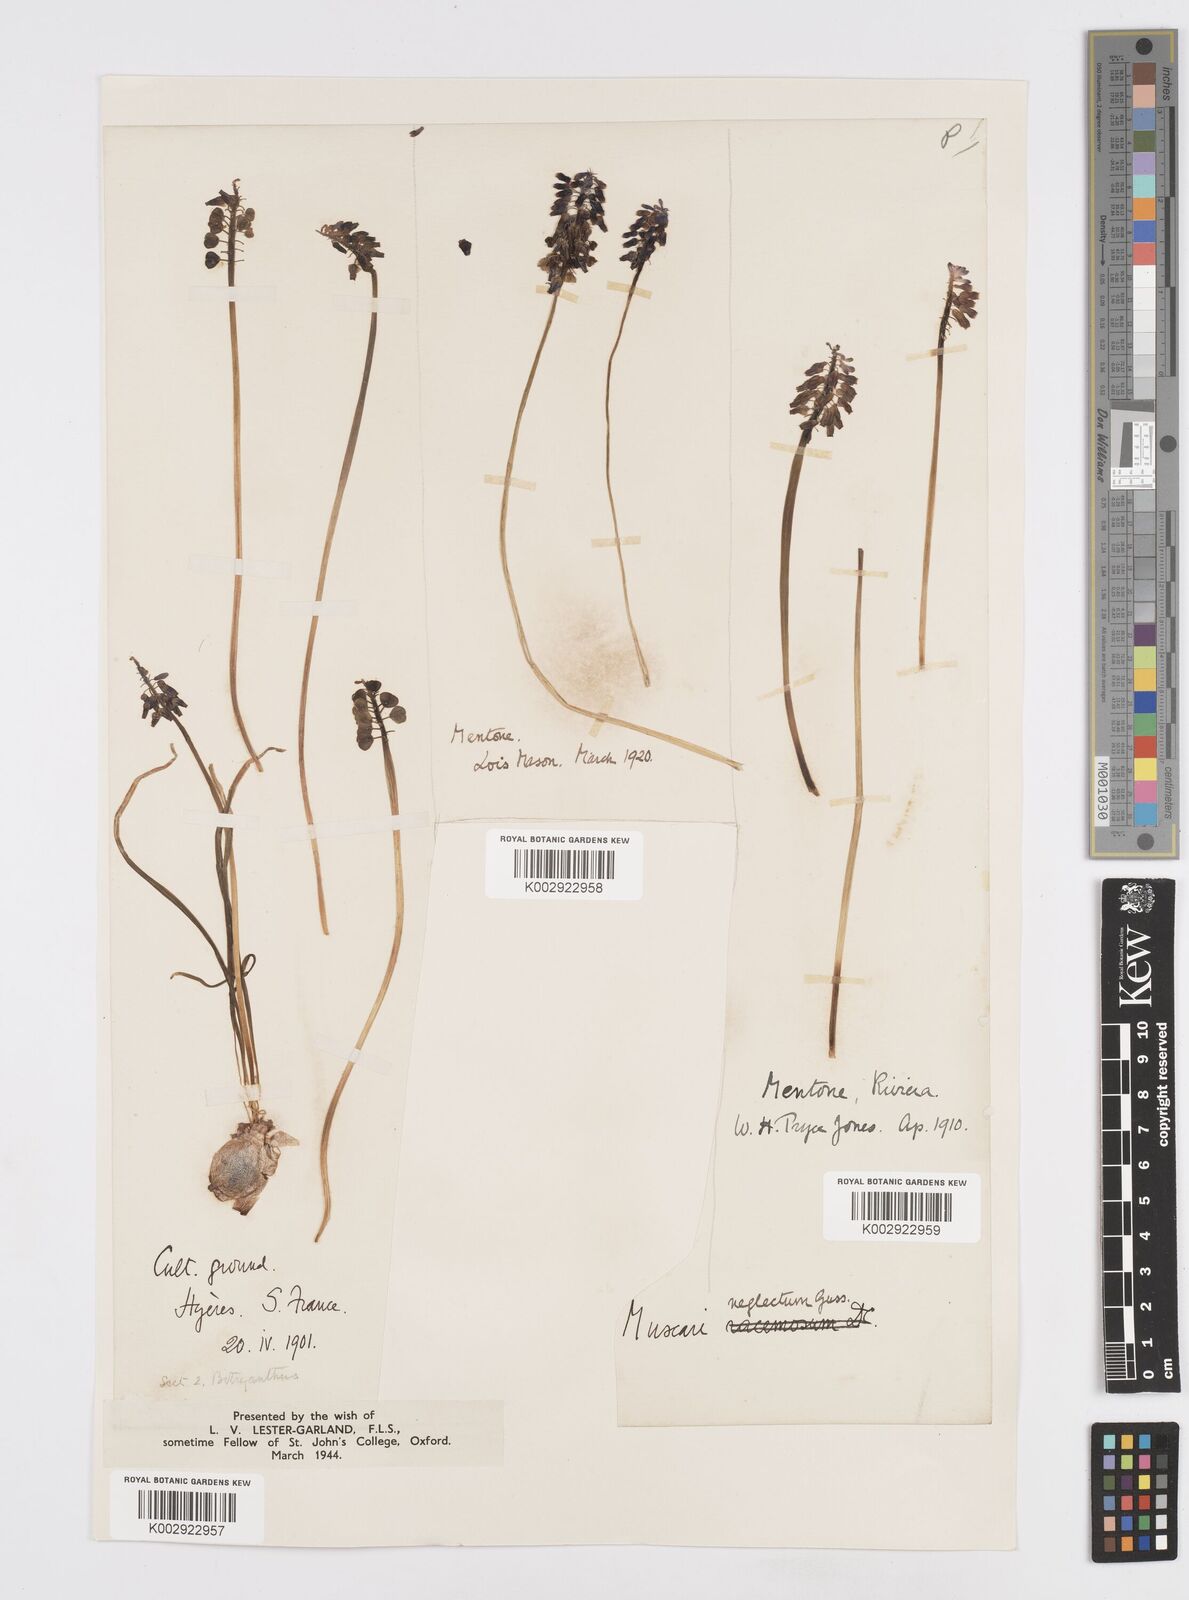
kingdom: Plantae
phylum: Tracheophyta
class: Liliopsida
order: Asparagales
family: Asparagaceae
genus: Muscari
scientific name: Muscari neglectum
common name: Grape-hyacinth
